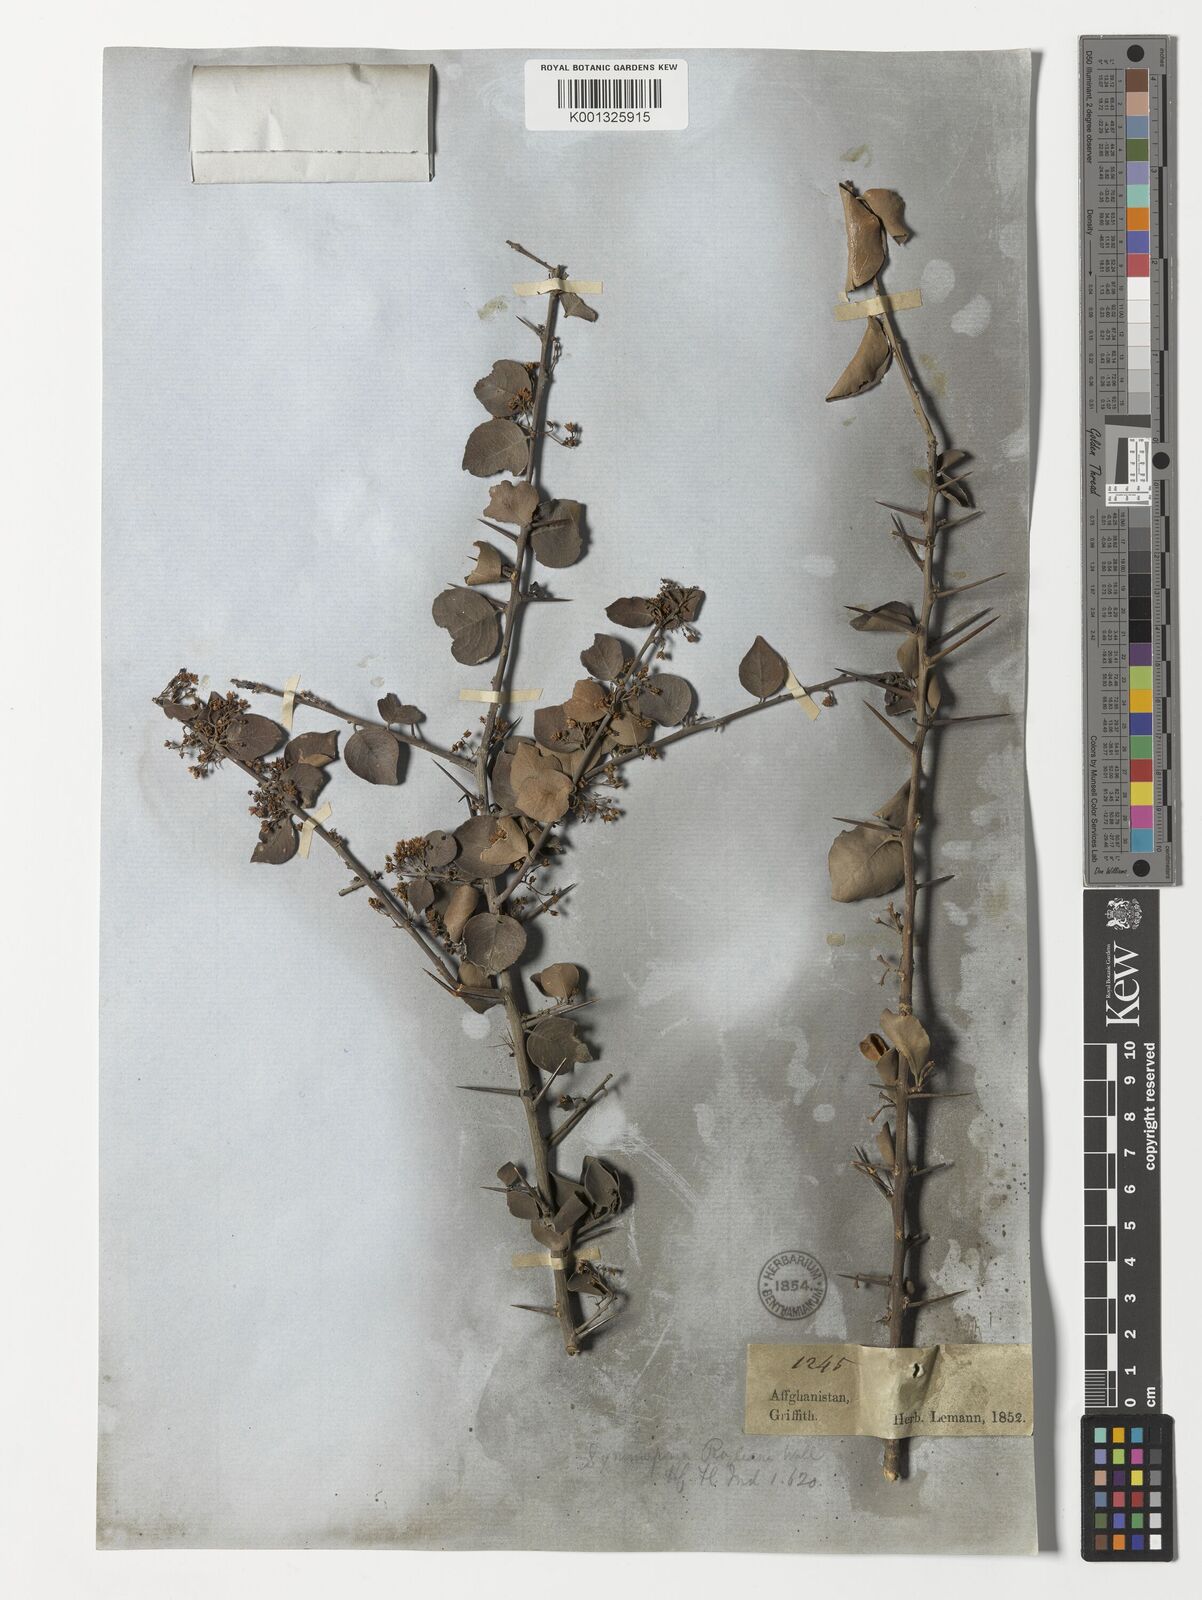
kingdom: Plantae
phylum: Tracheophyta
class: Magnoliopsida
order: Celastrales
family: Celastraceae
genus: Gymnosporia
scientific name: Gymnosporia royleana
